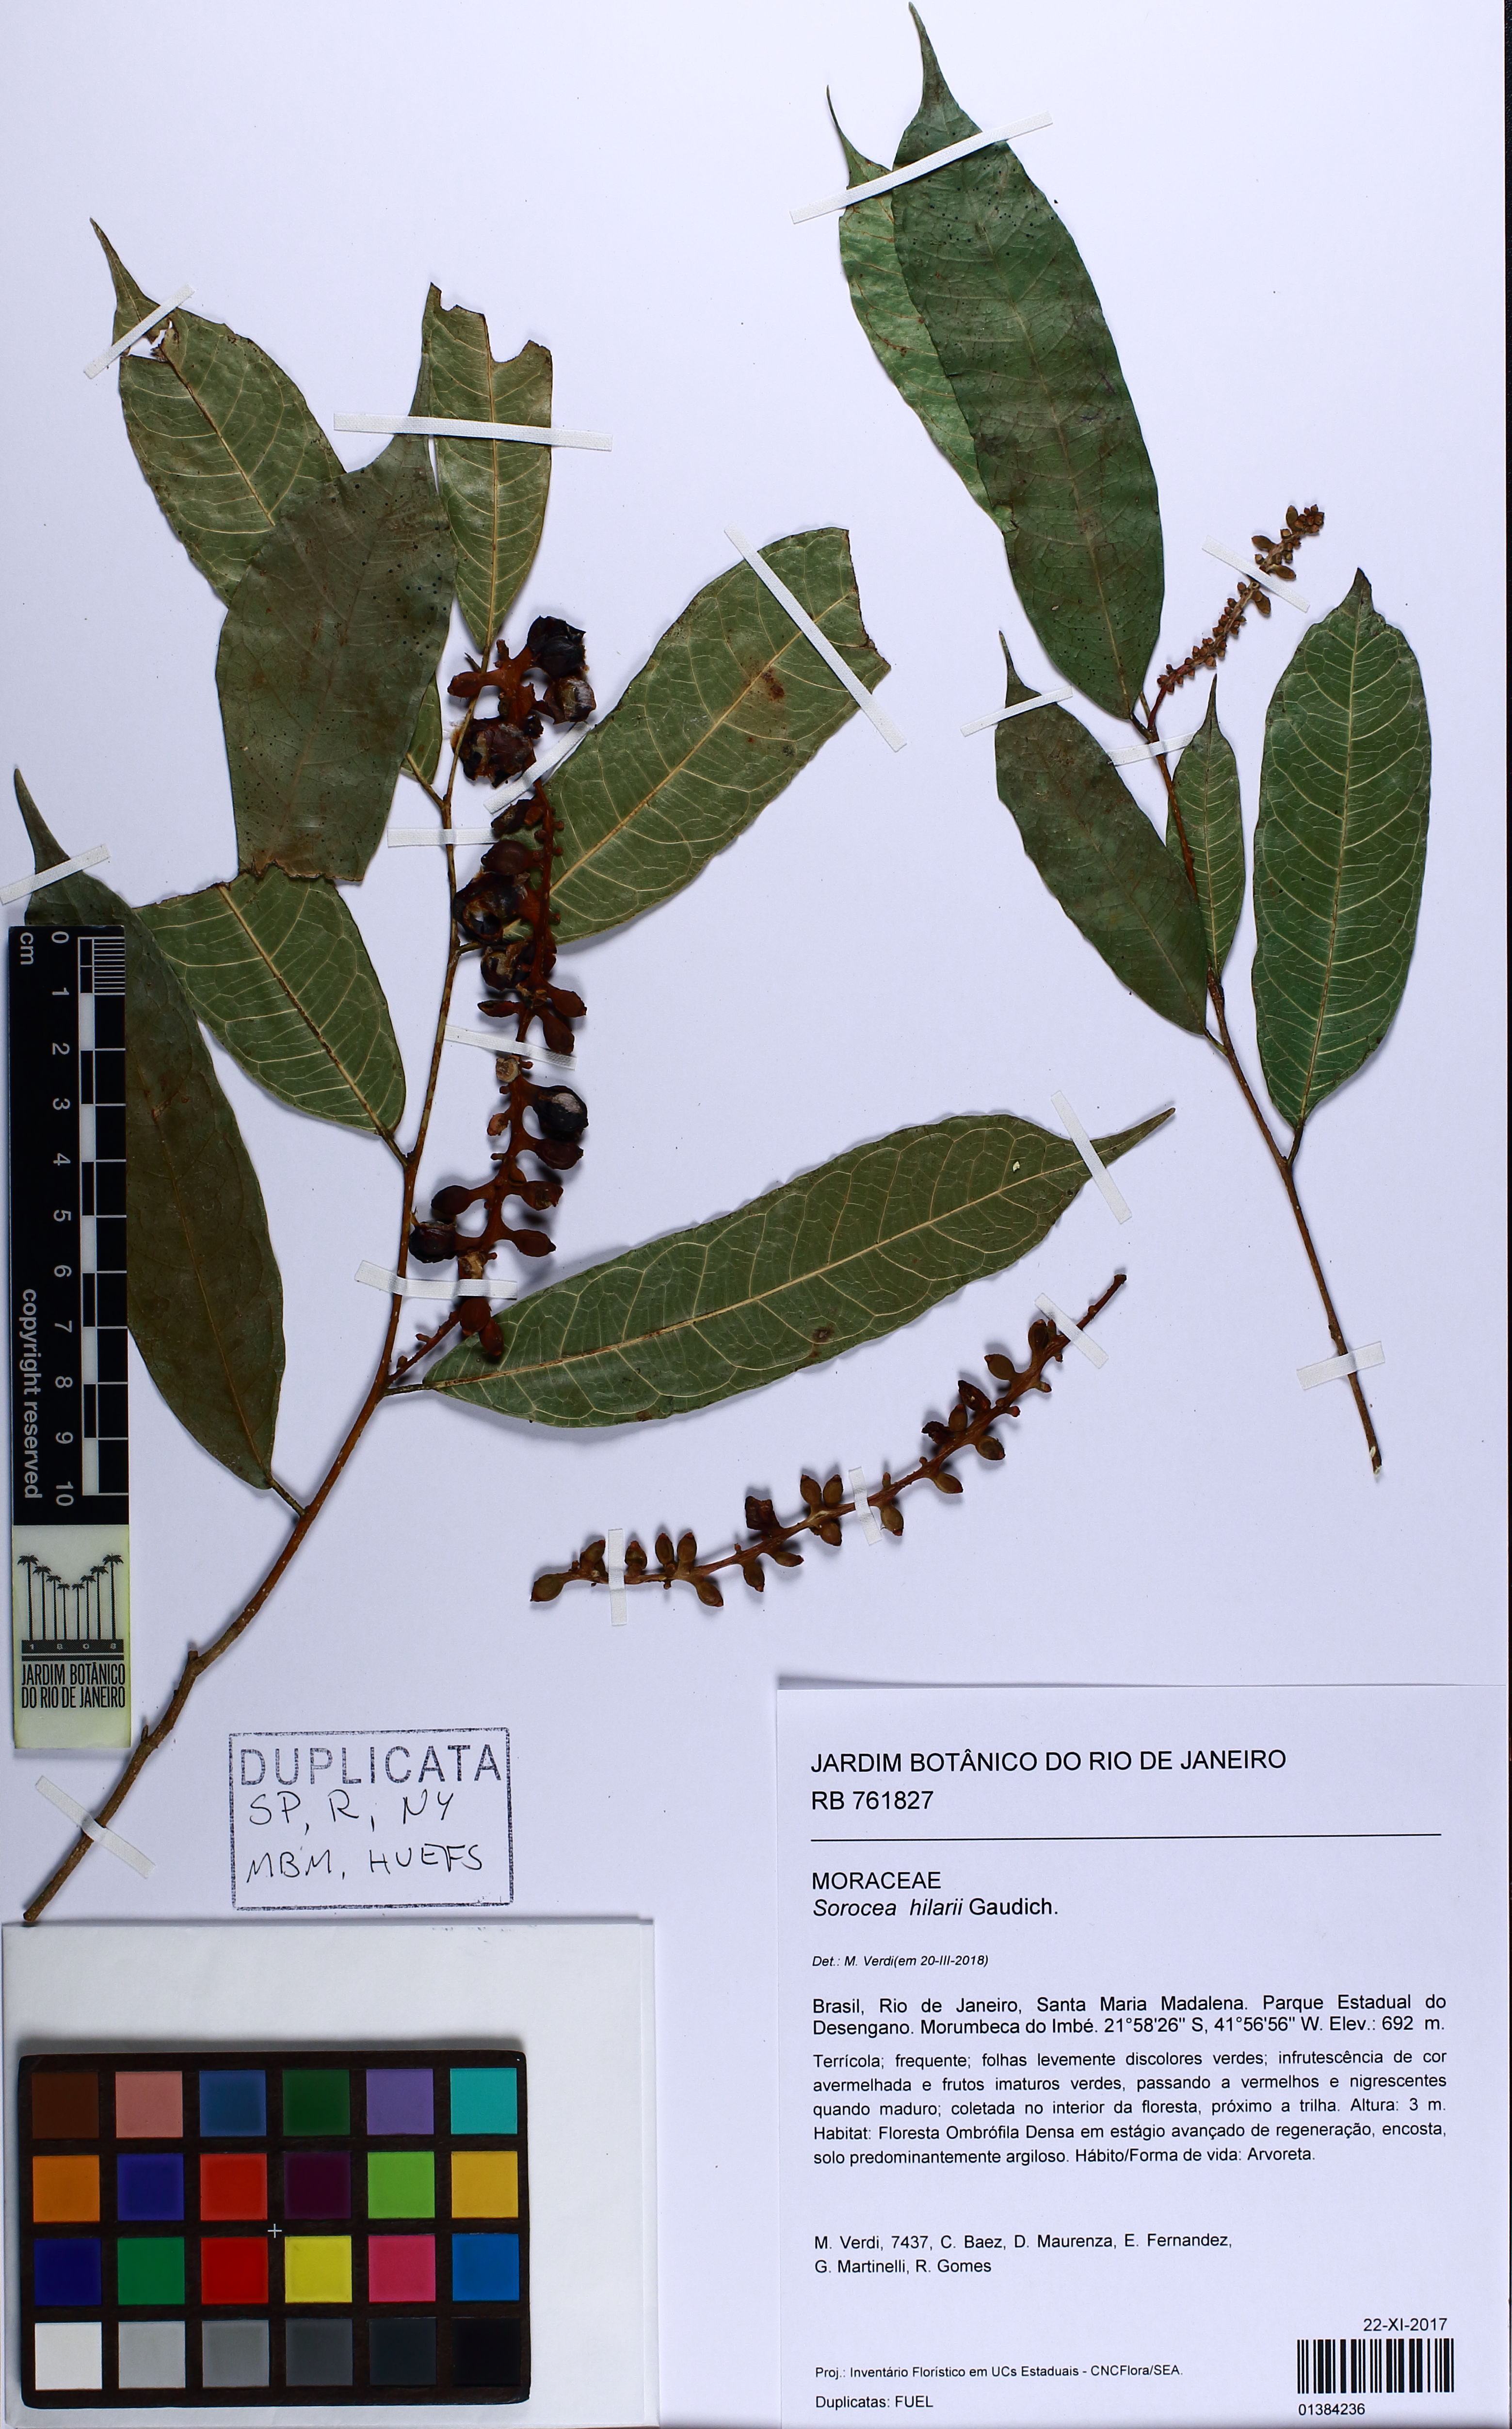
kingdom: Plantae
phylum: Tracheophyta
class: Magnoliopsida
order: Rosales
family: Moraceae
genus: Sorocea
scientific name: Sorocea hilarii
